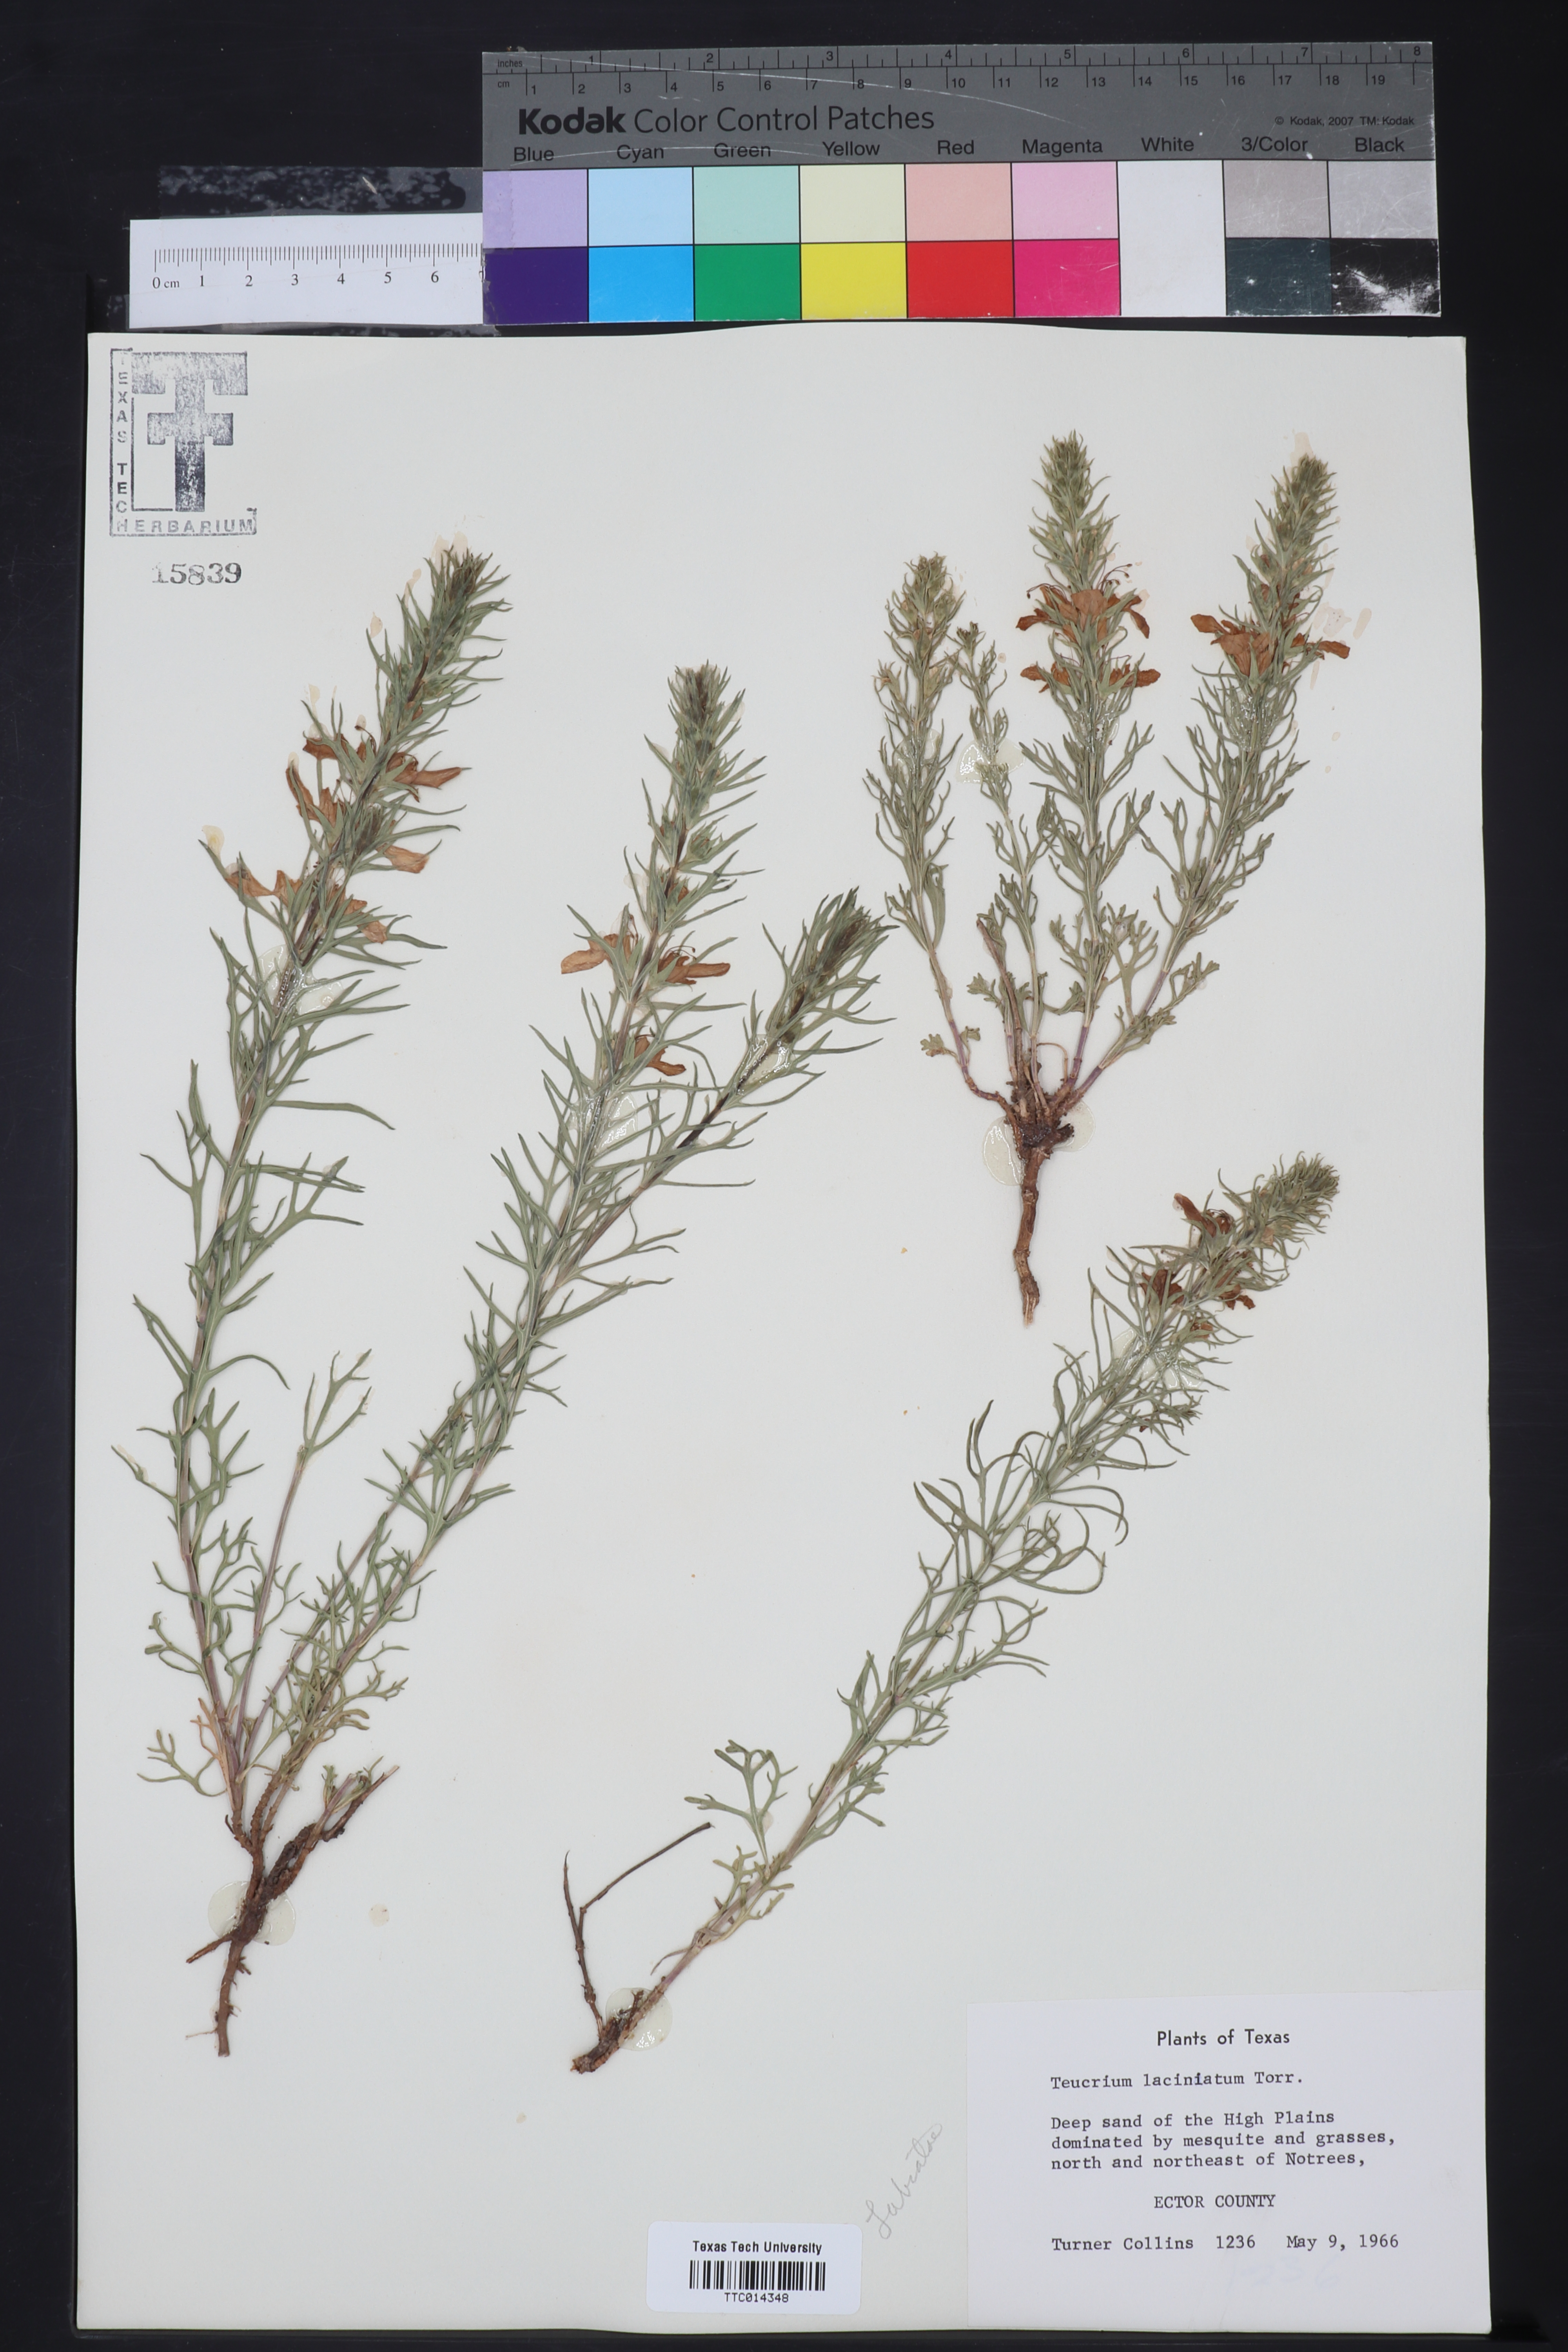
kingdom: Plantae
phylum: Tracheophyta
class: Magnoliopsida
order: Lamiales
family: Lamiaceae
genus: Teucrium
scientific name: Teucrium laciniatum
